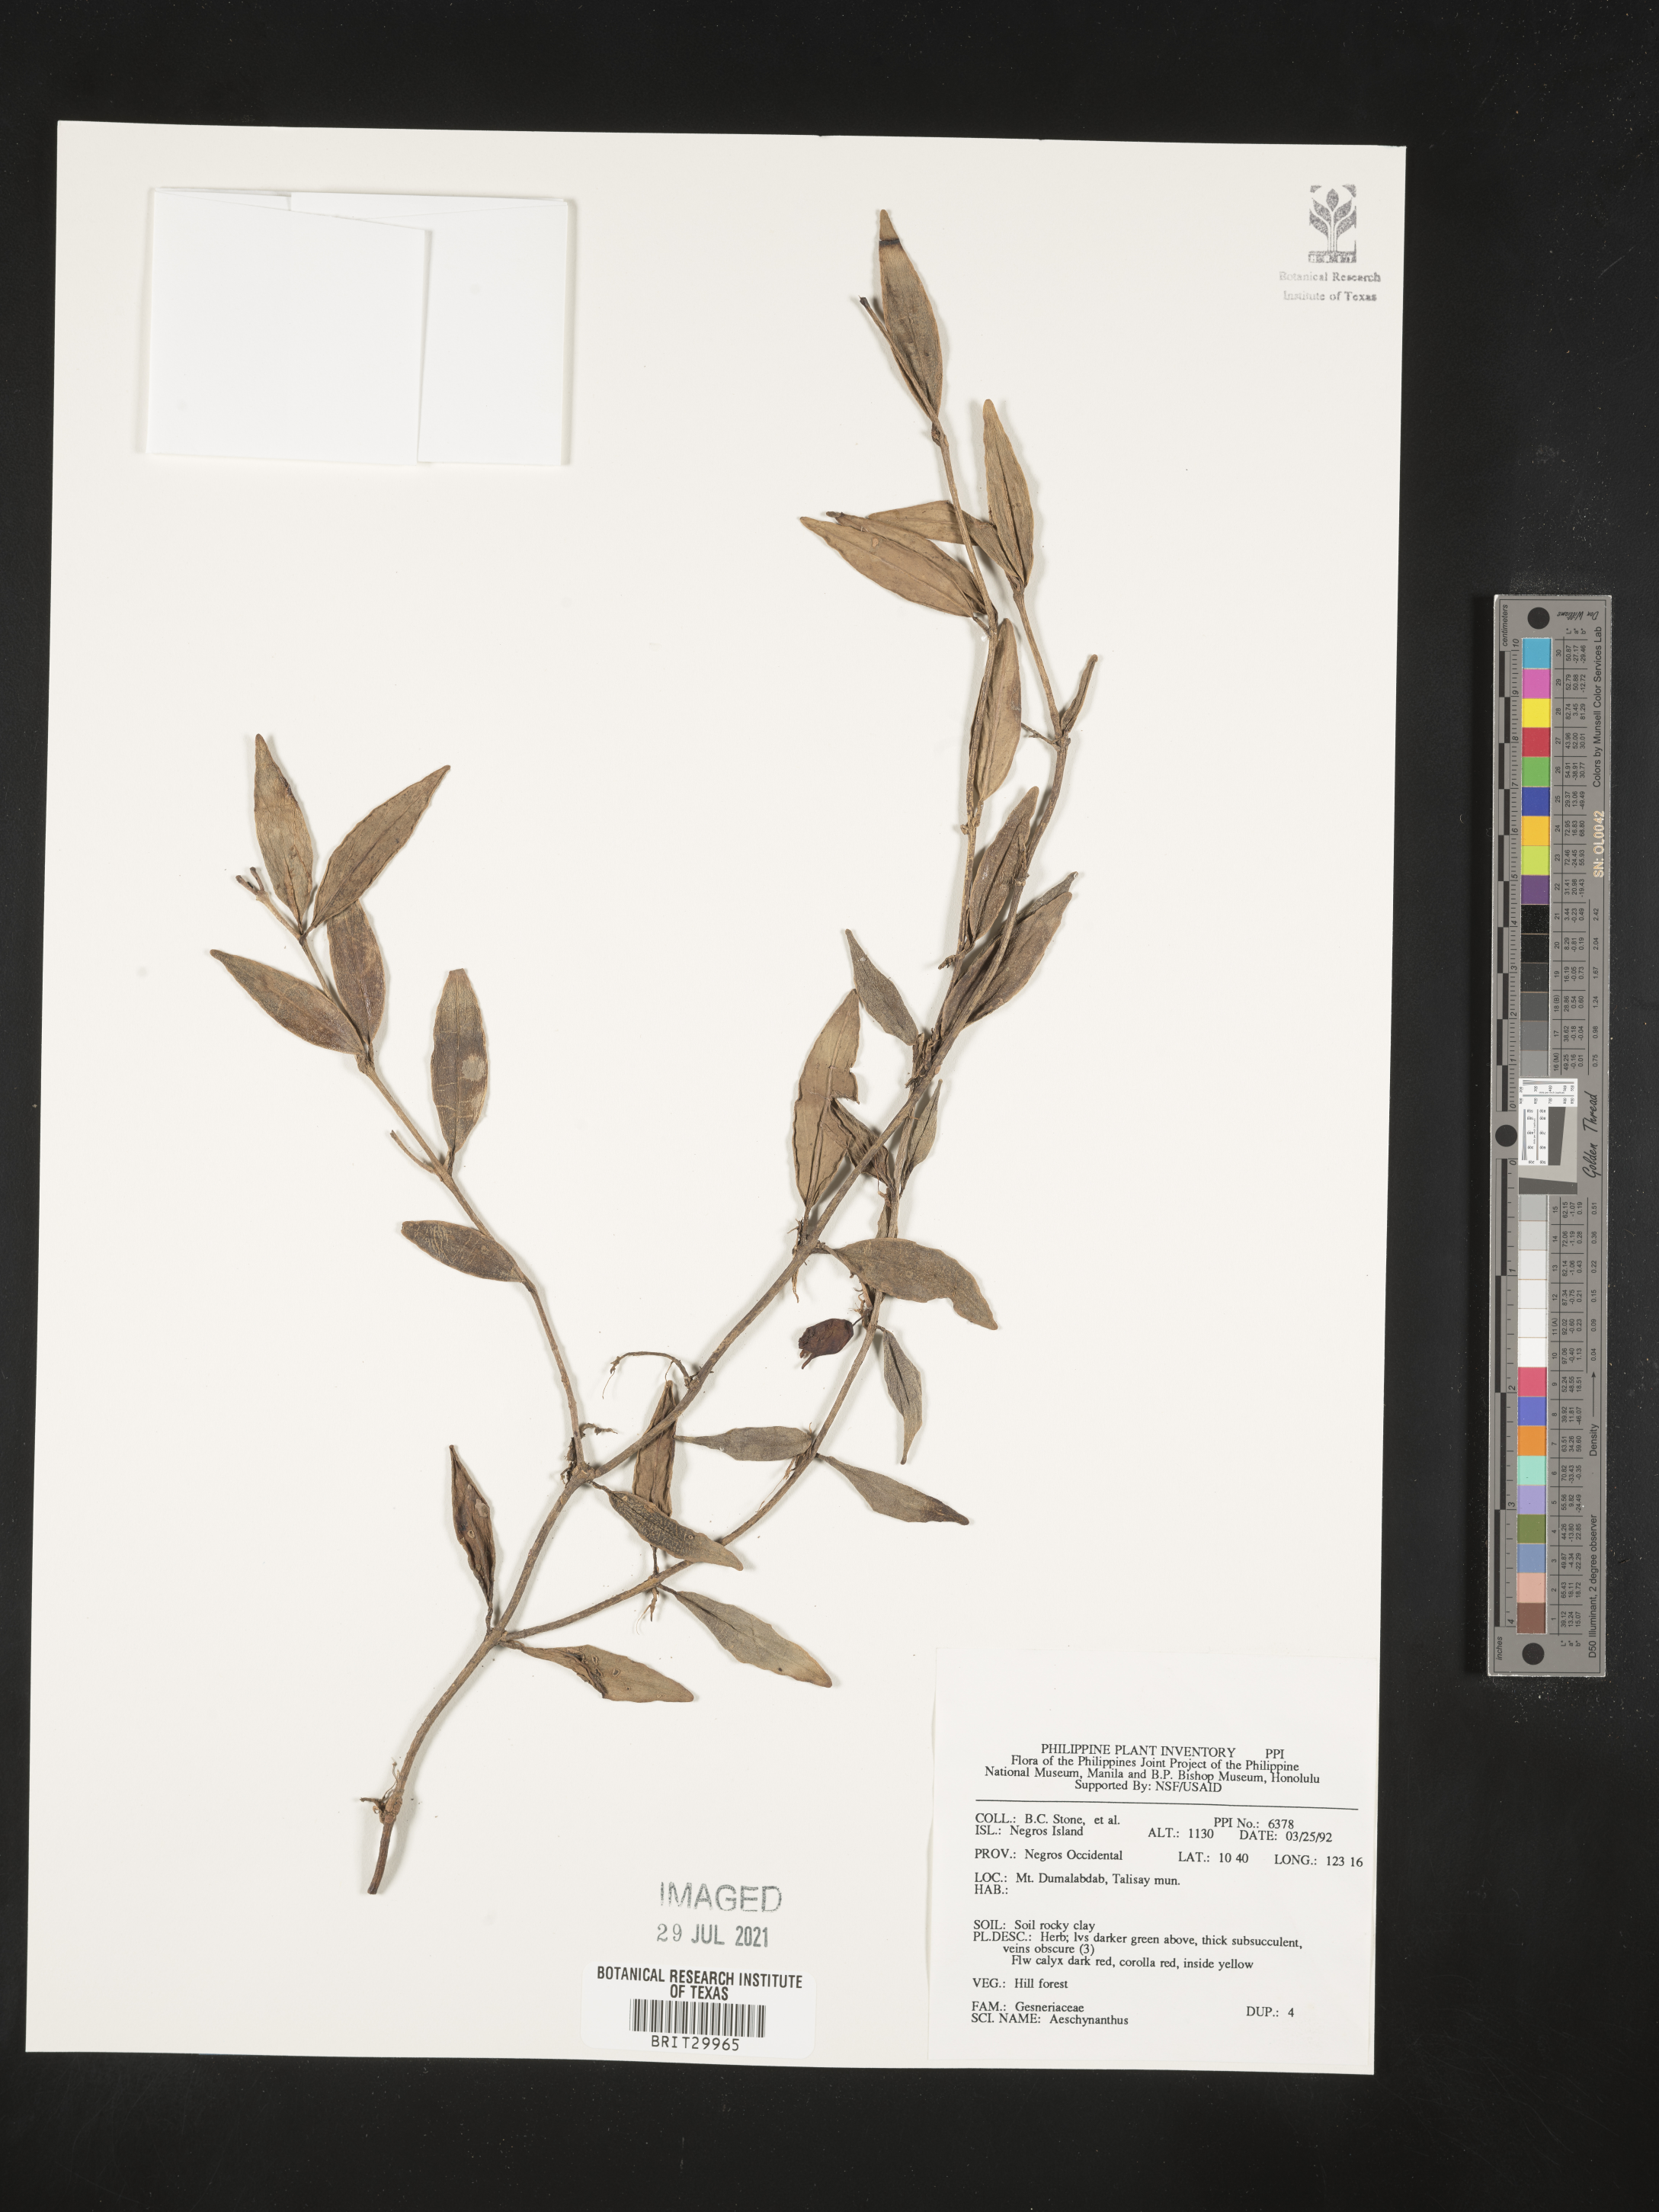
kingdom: Plantae
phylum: Tracheophyta
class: Magnoliopsida
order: Lamiales
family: Gesneriaceae
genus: Aeschynanthus
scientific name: Aeschynanthus
